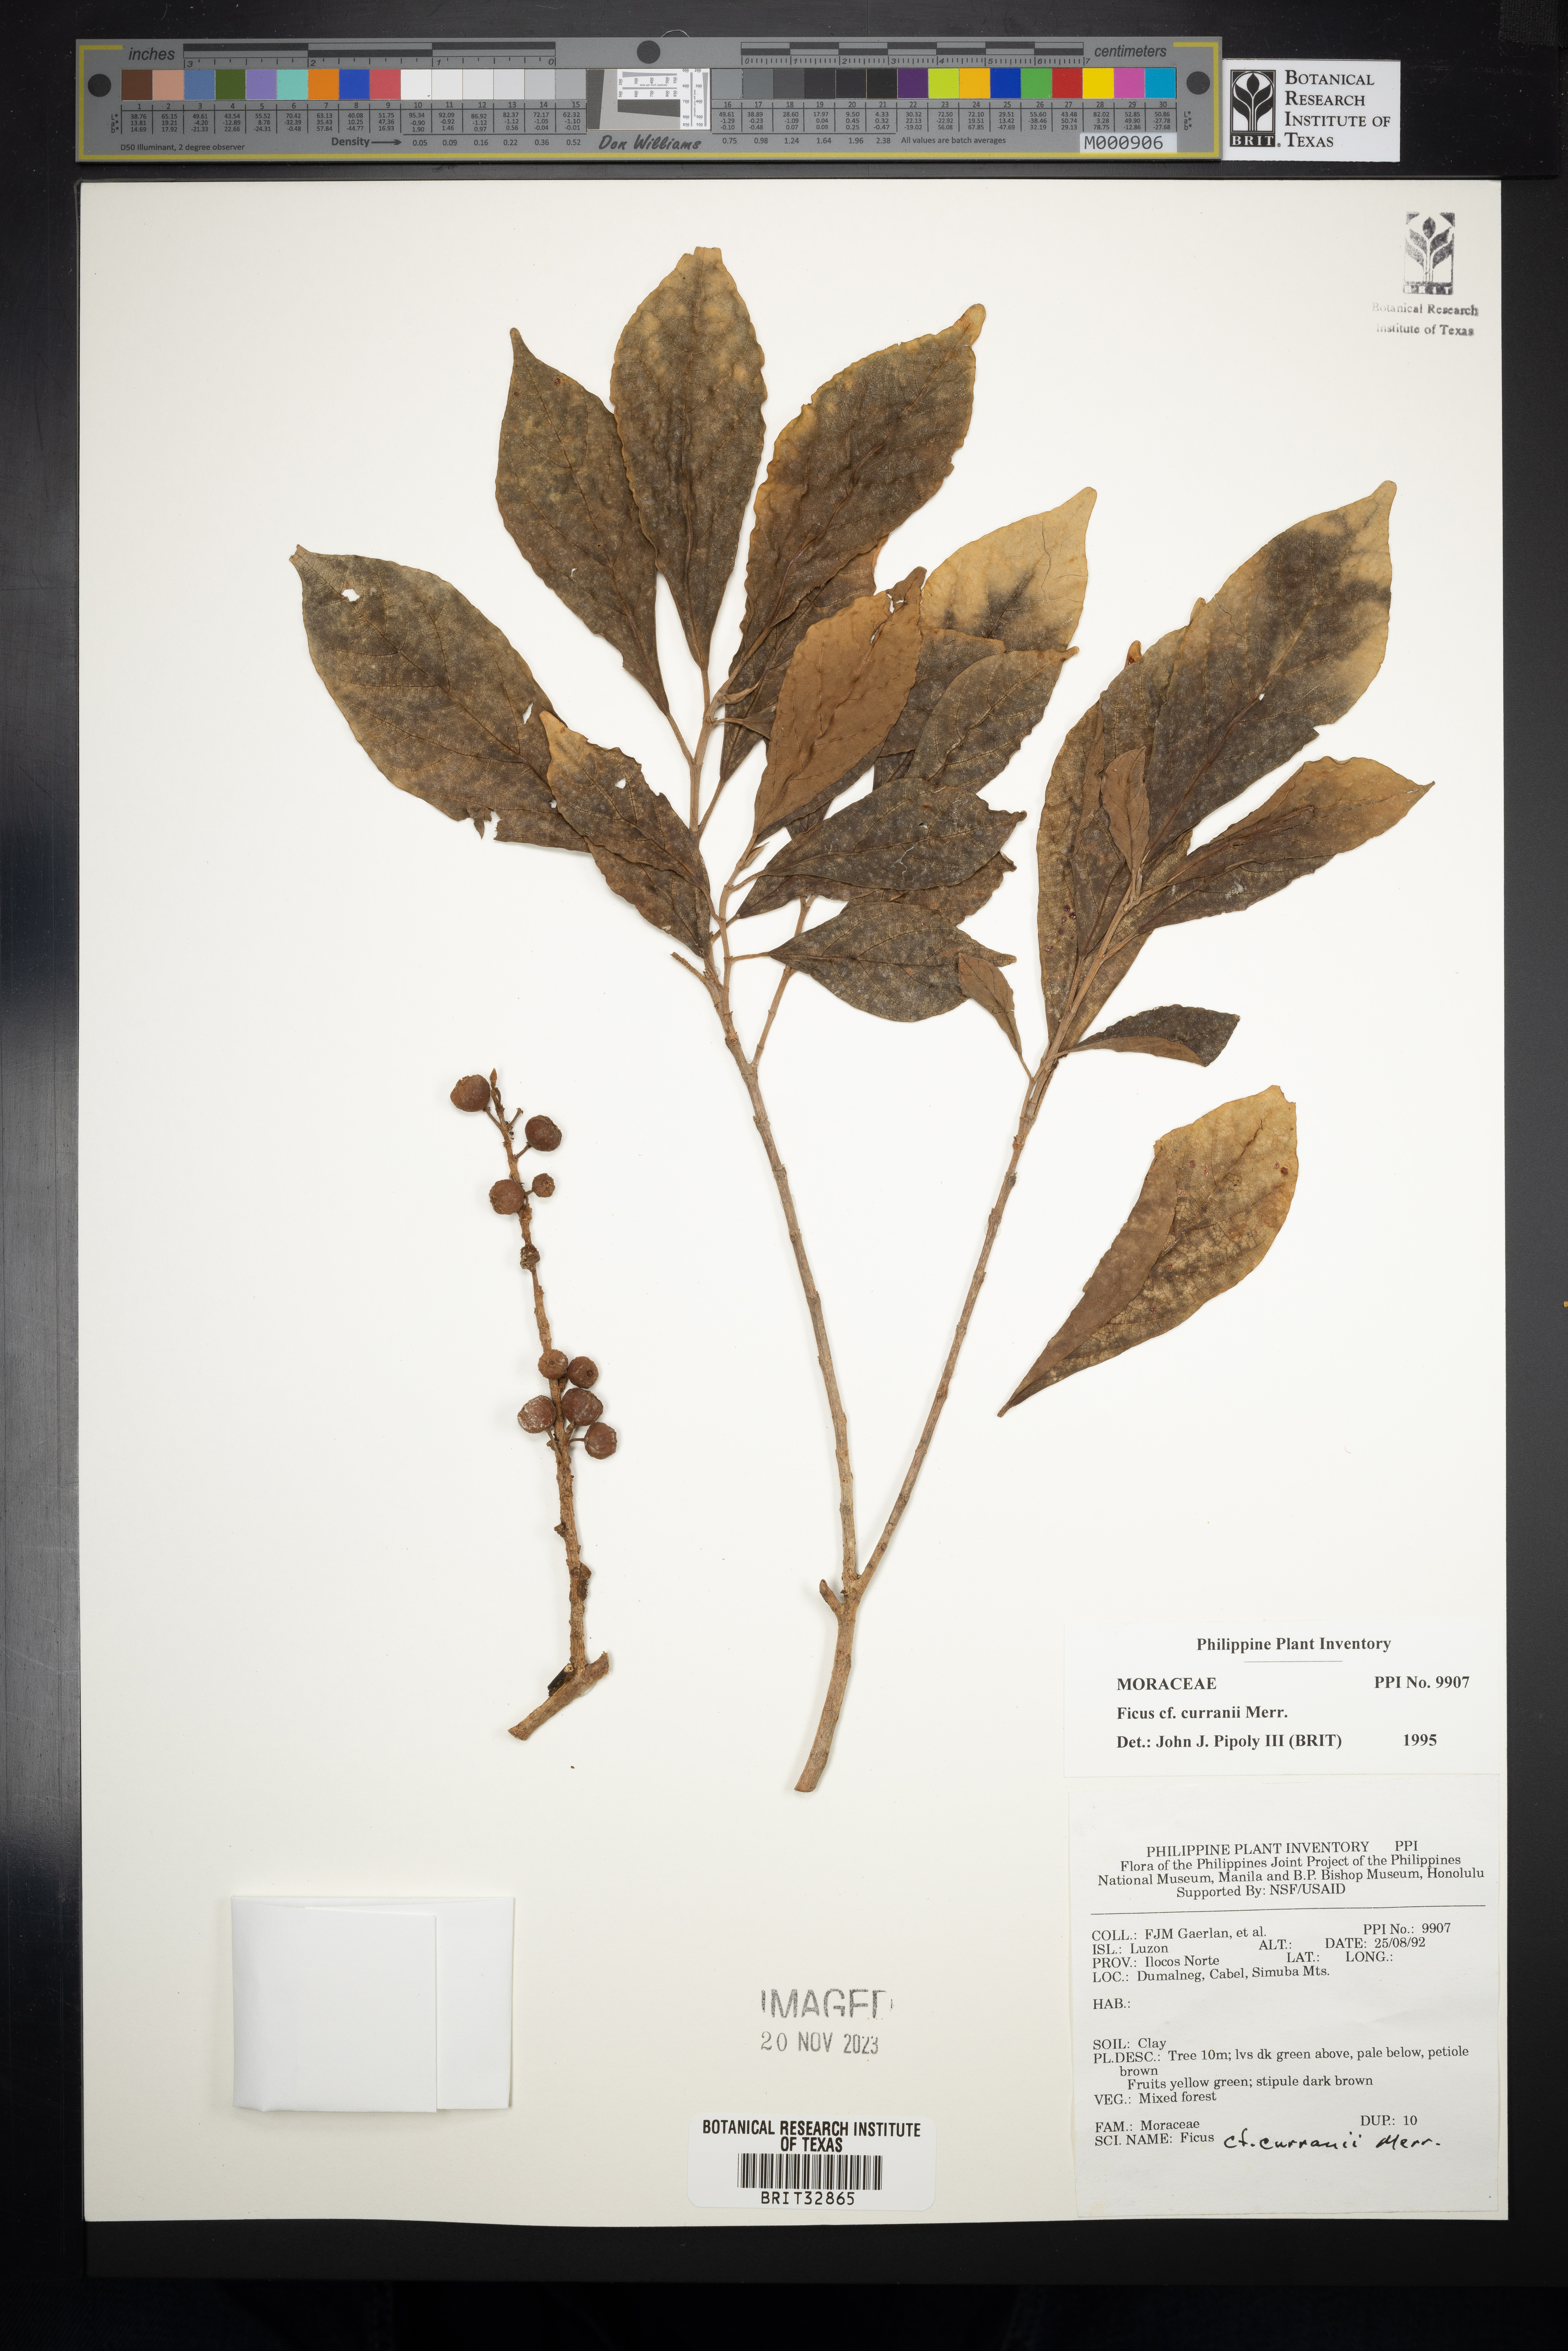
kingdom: Plantae
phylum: Tracheophyta
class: Magnoliopsida
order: Rosales
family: Moraceae
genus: Ficus
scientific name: Ficus fistulosa
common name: Figs
